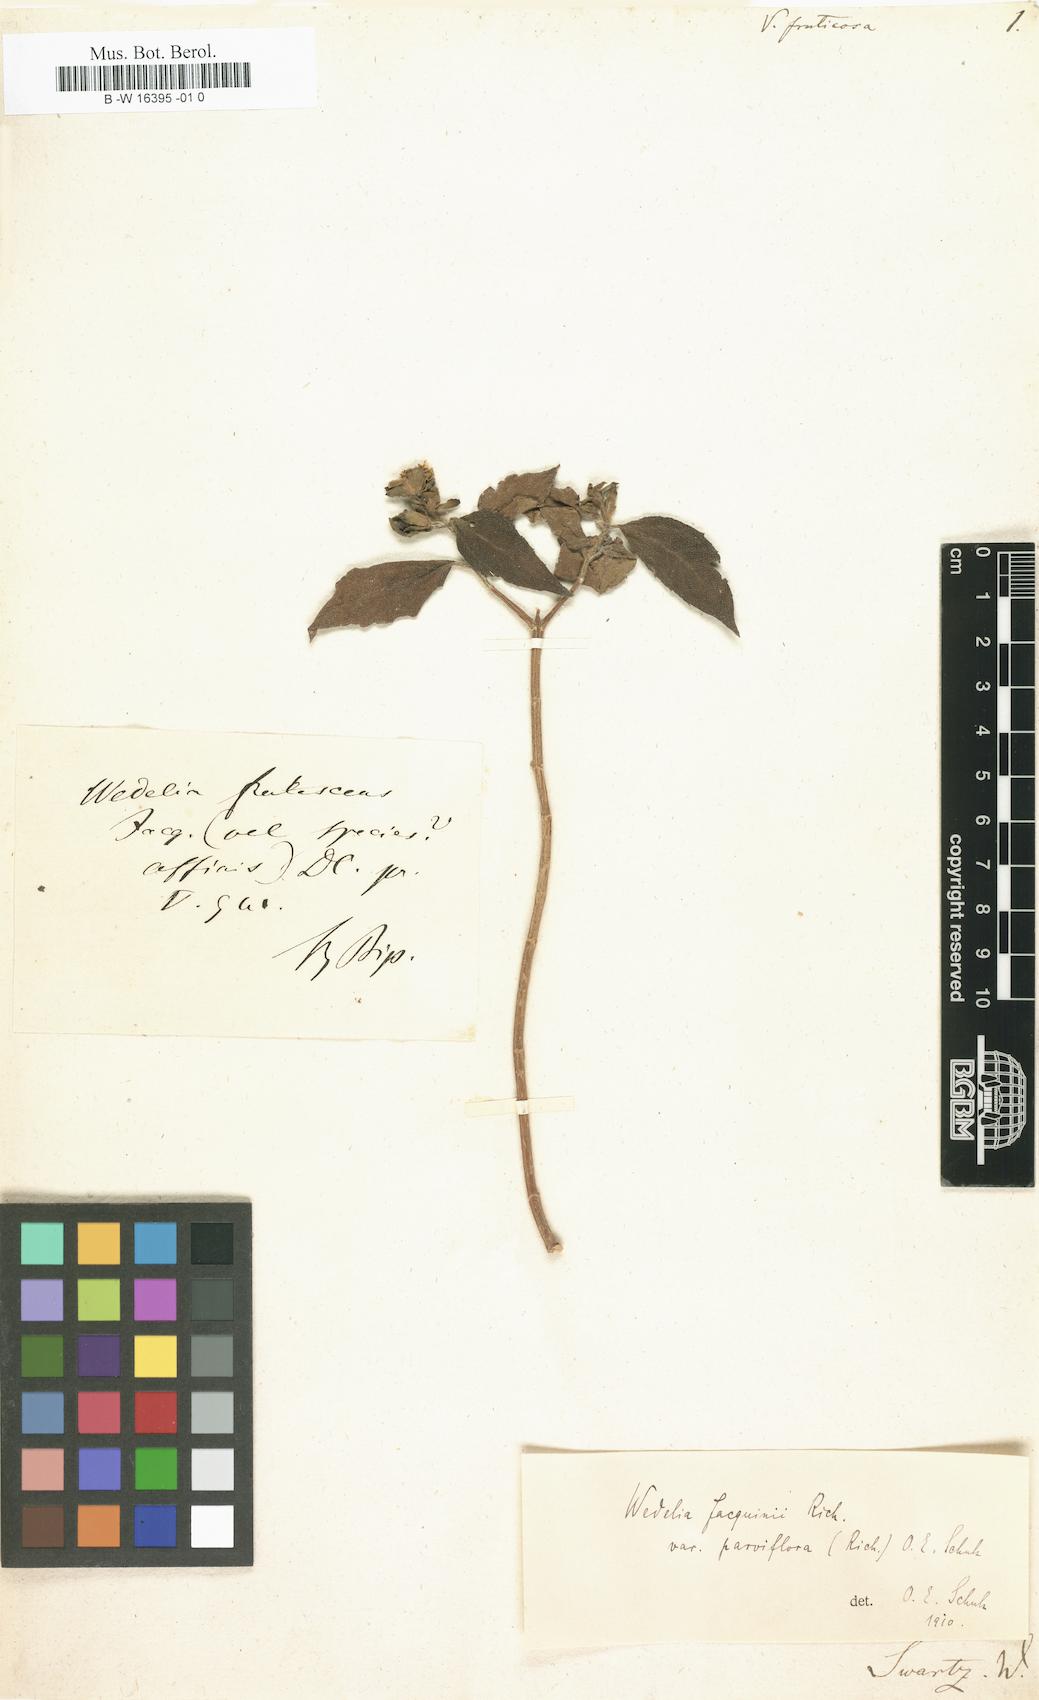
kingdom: Plantae
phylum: Tracheophyta
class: Magnoliopsida
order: Asterales
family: Asteraceae
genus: Verbesina
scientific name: Verbesina fruticosa
